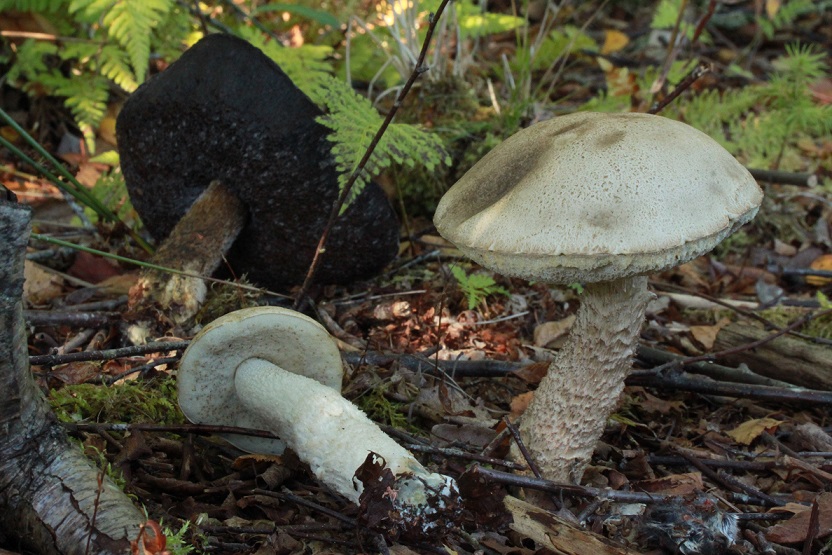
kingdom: Fungi
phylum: Basidiomycota
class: Agaricomycetes
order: Boletales
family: Boletaceae
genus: Leccinum
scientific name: Leccinum scabrum
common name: hvid skælrørhat
